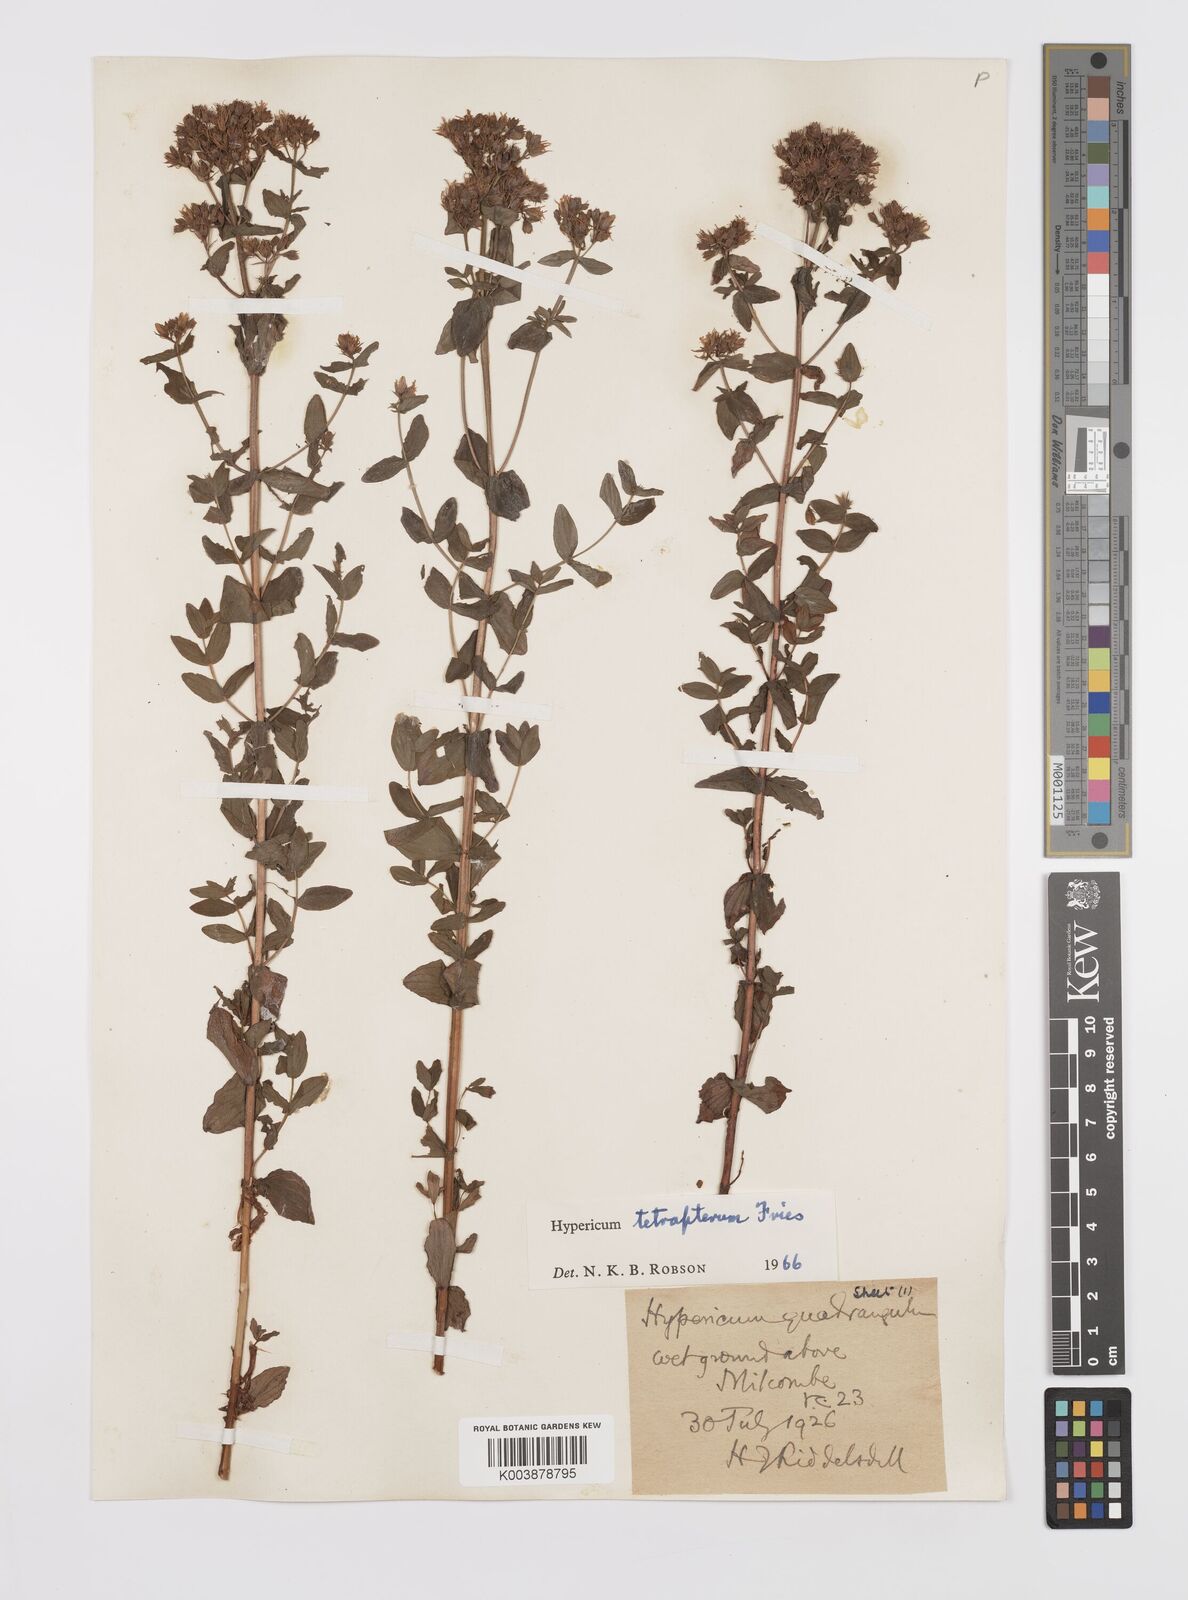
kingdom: Plantae
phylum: Tracheophyta
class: Magnoliopsida
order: Malpighiales
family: Hypericaceae
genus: Hypericum
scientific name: Hypericum tetrapterum
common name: Square-stalked st. john's-wort
